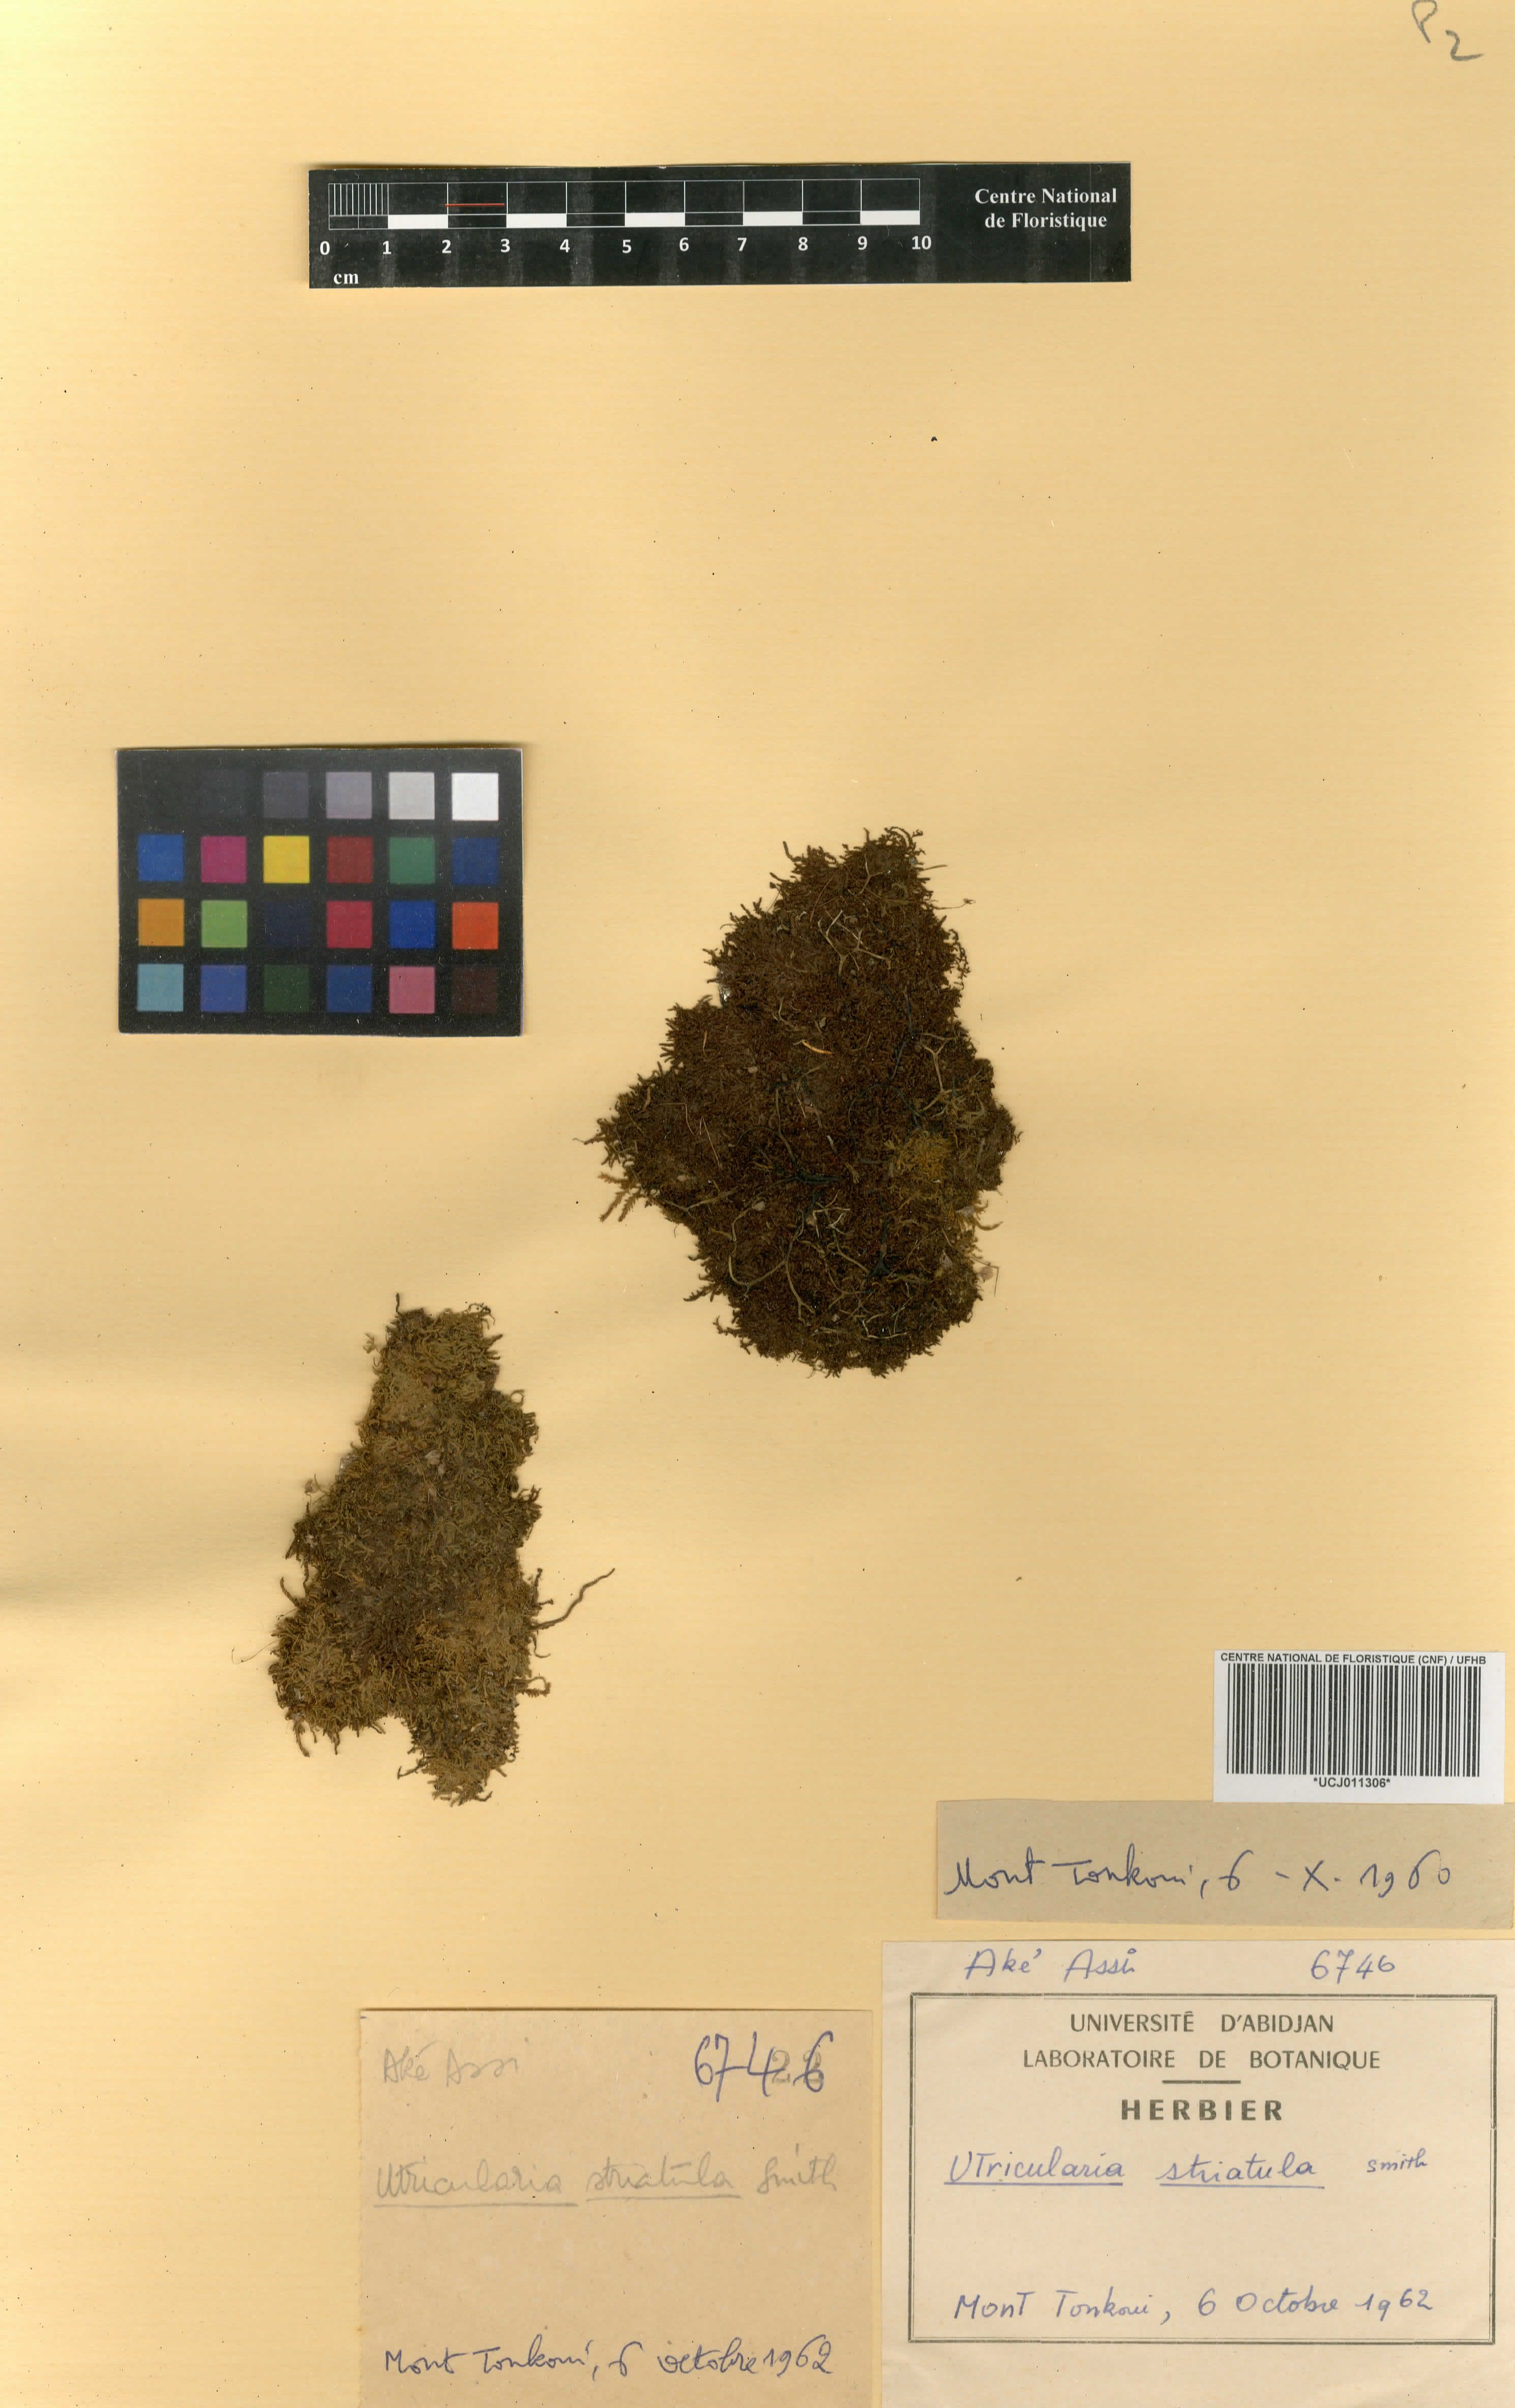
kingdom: Plantae
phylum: Tracheophyta
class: Magnoliopsida
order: Lamiales
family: Lentibulariaceae
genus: Utricularia
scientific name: Utricularia subulata
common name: Tiny bladderwort
